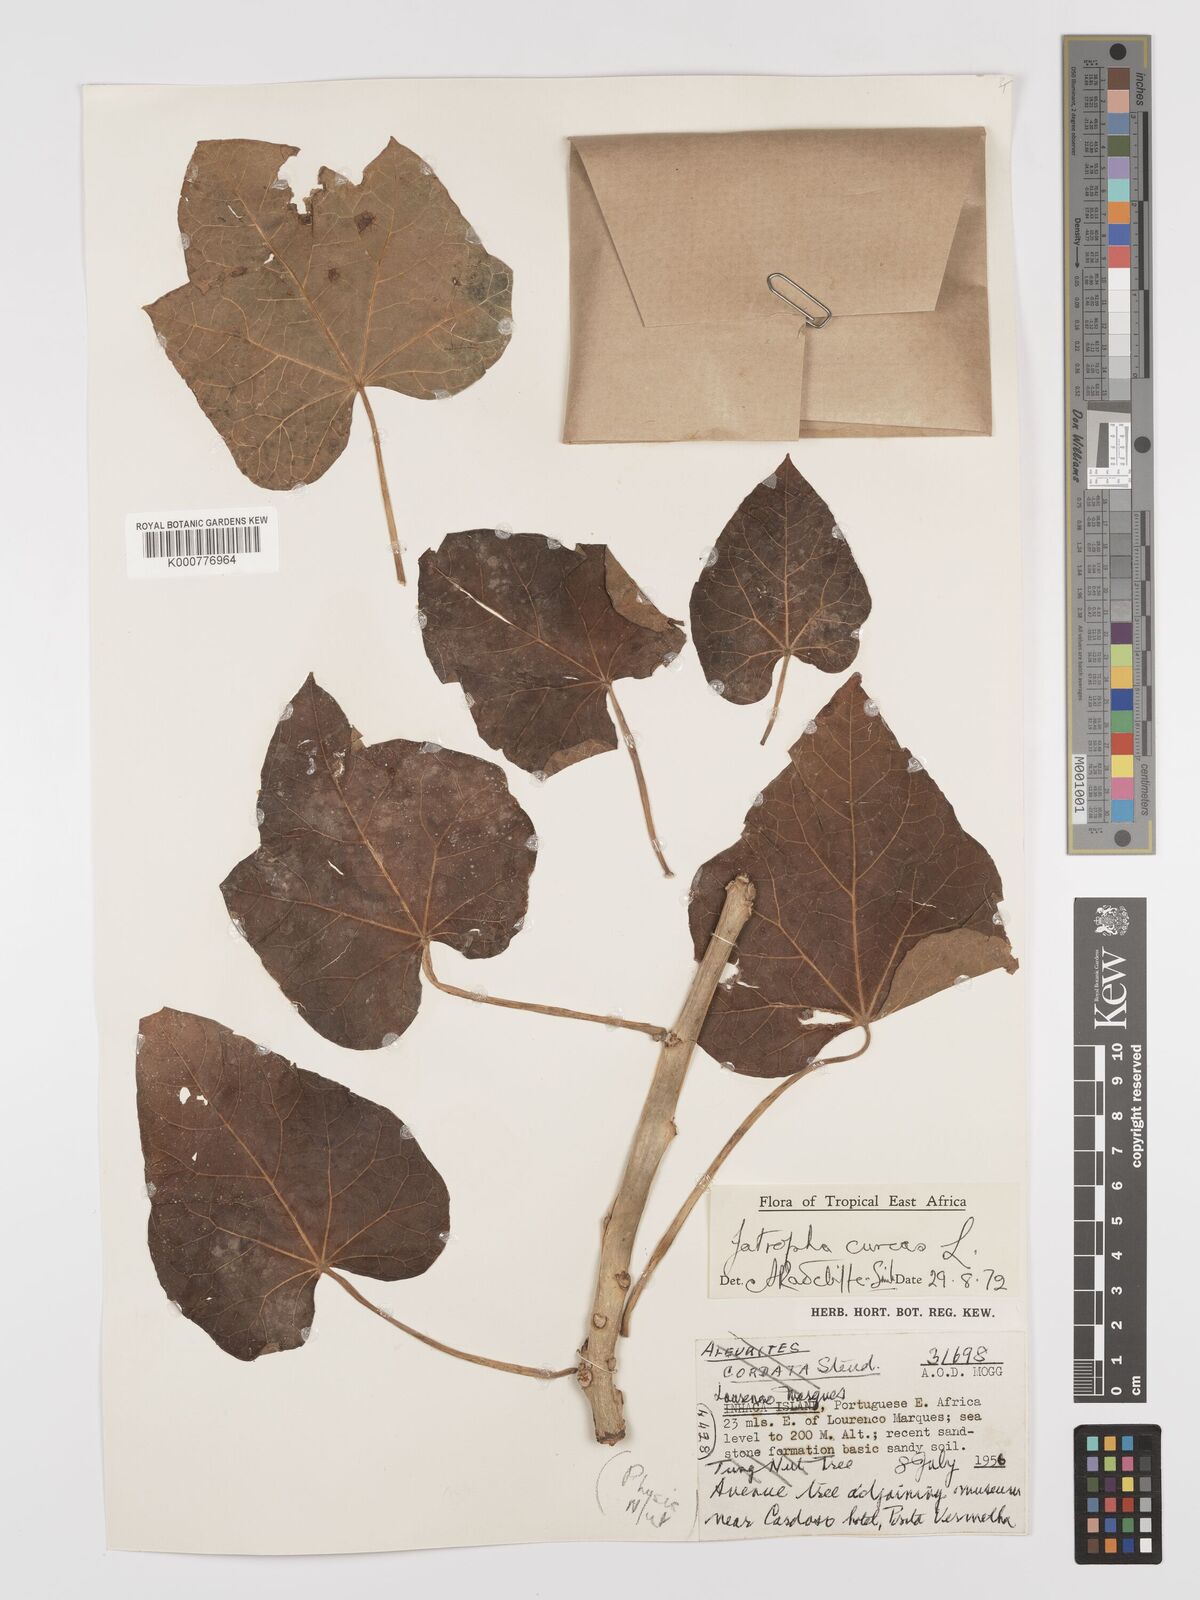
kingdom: Plantae
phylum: Tracheophyta
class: Magnoliopsida
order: Malpighiales
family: Euphorbiaceae
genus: Jatropha
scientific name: Jatropha curcas
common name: Barbados nut
